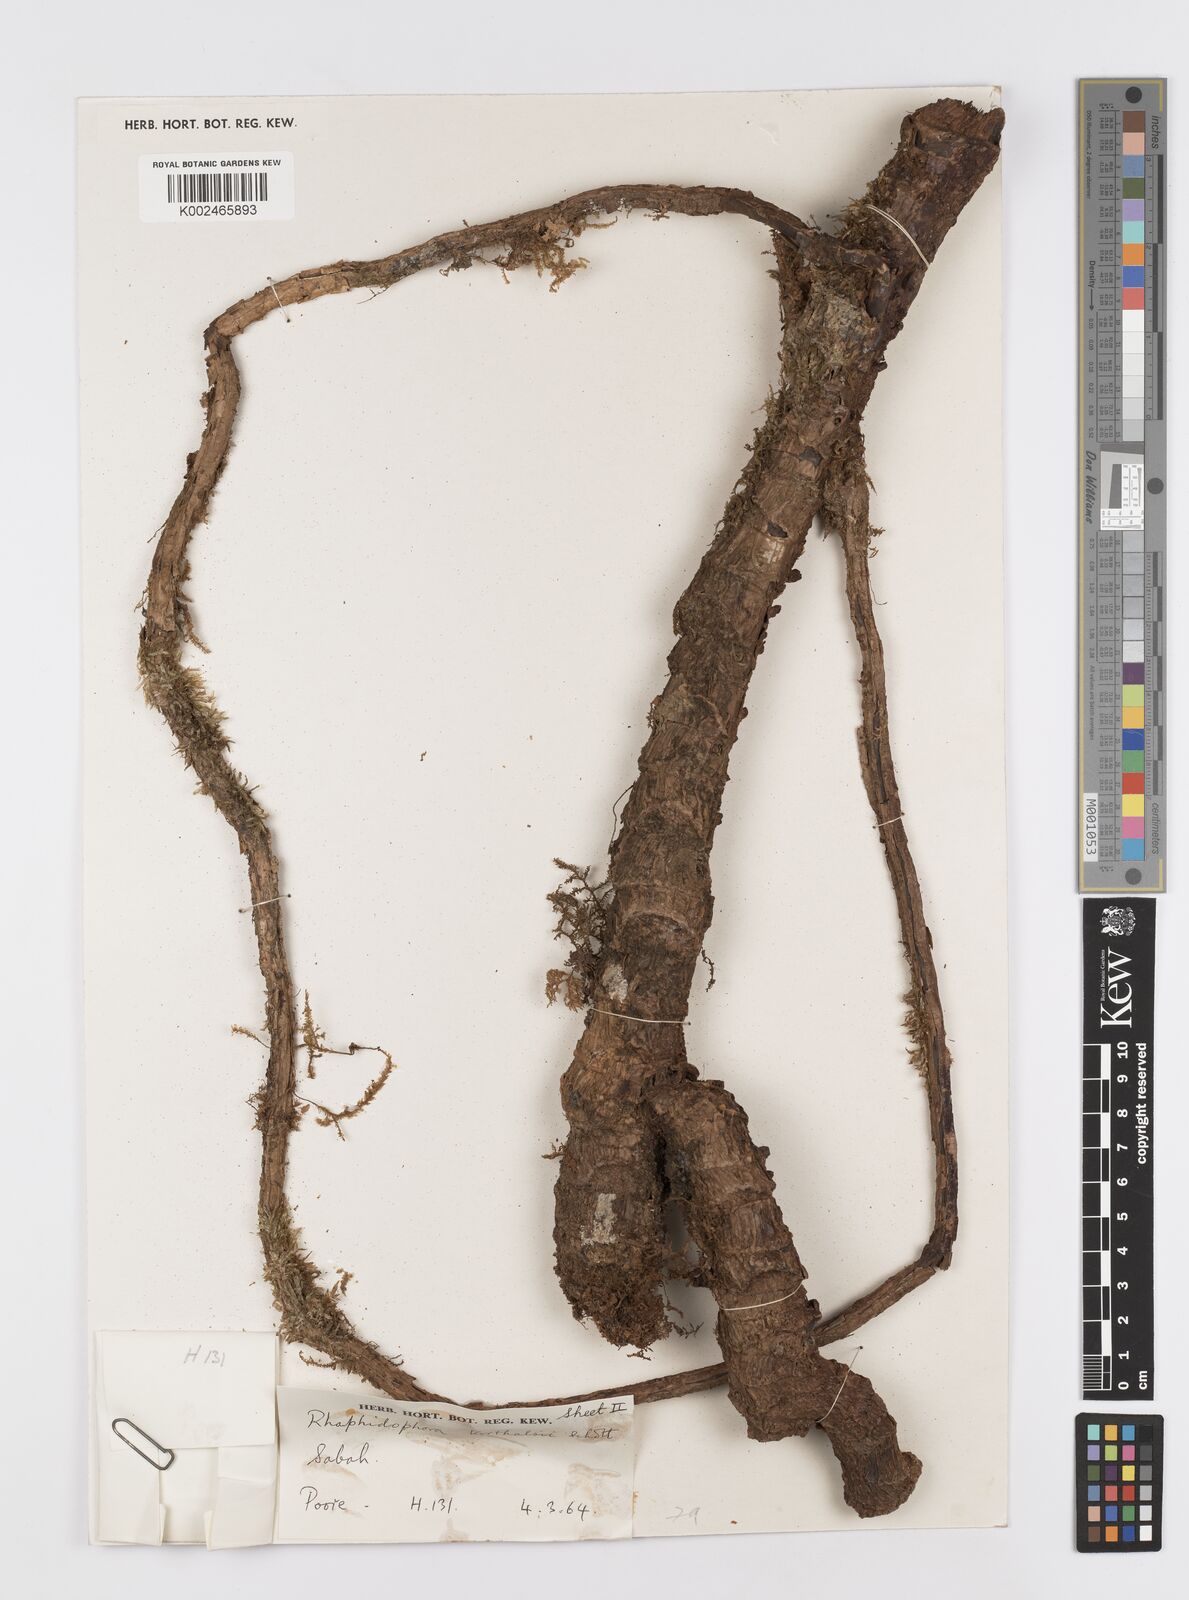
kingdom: Plantae
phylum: Tracheophyta
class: Liliopsida
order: Alismatales
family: Araceae
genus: Rhaphidophora
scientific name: Rhaphidophora korthalsii
